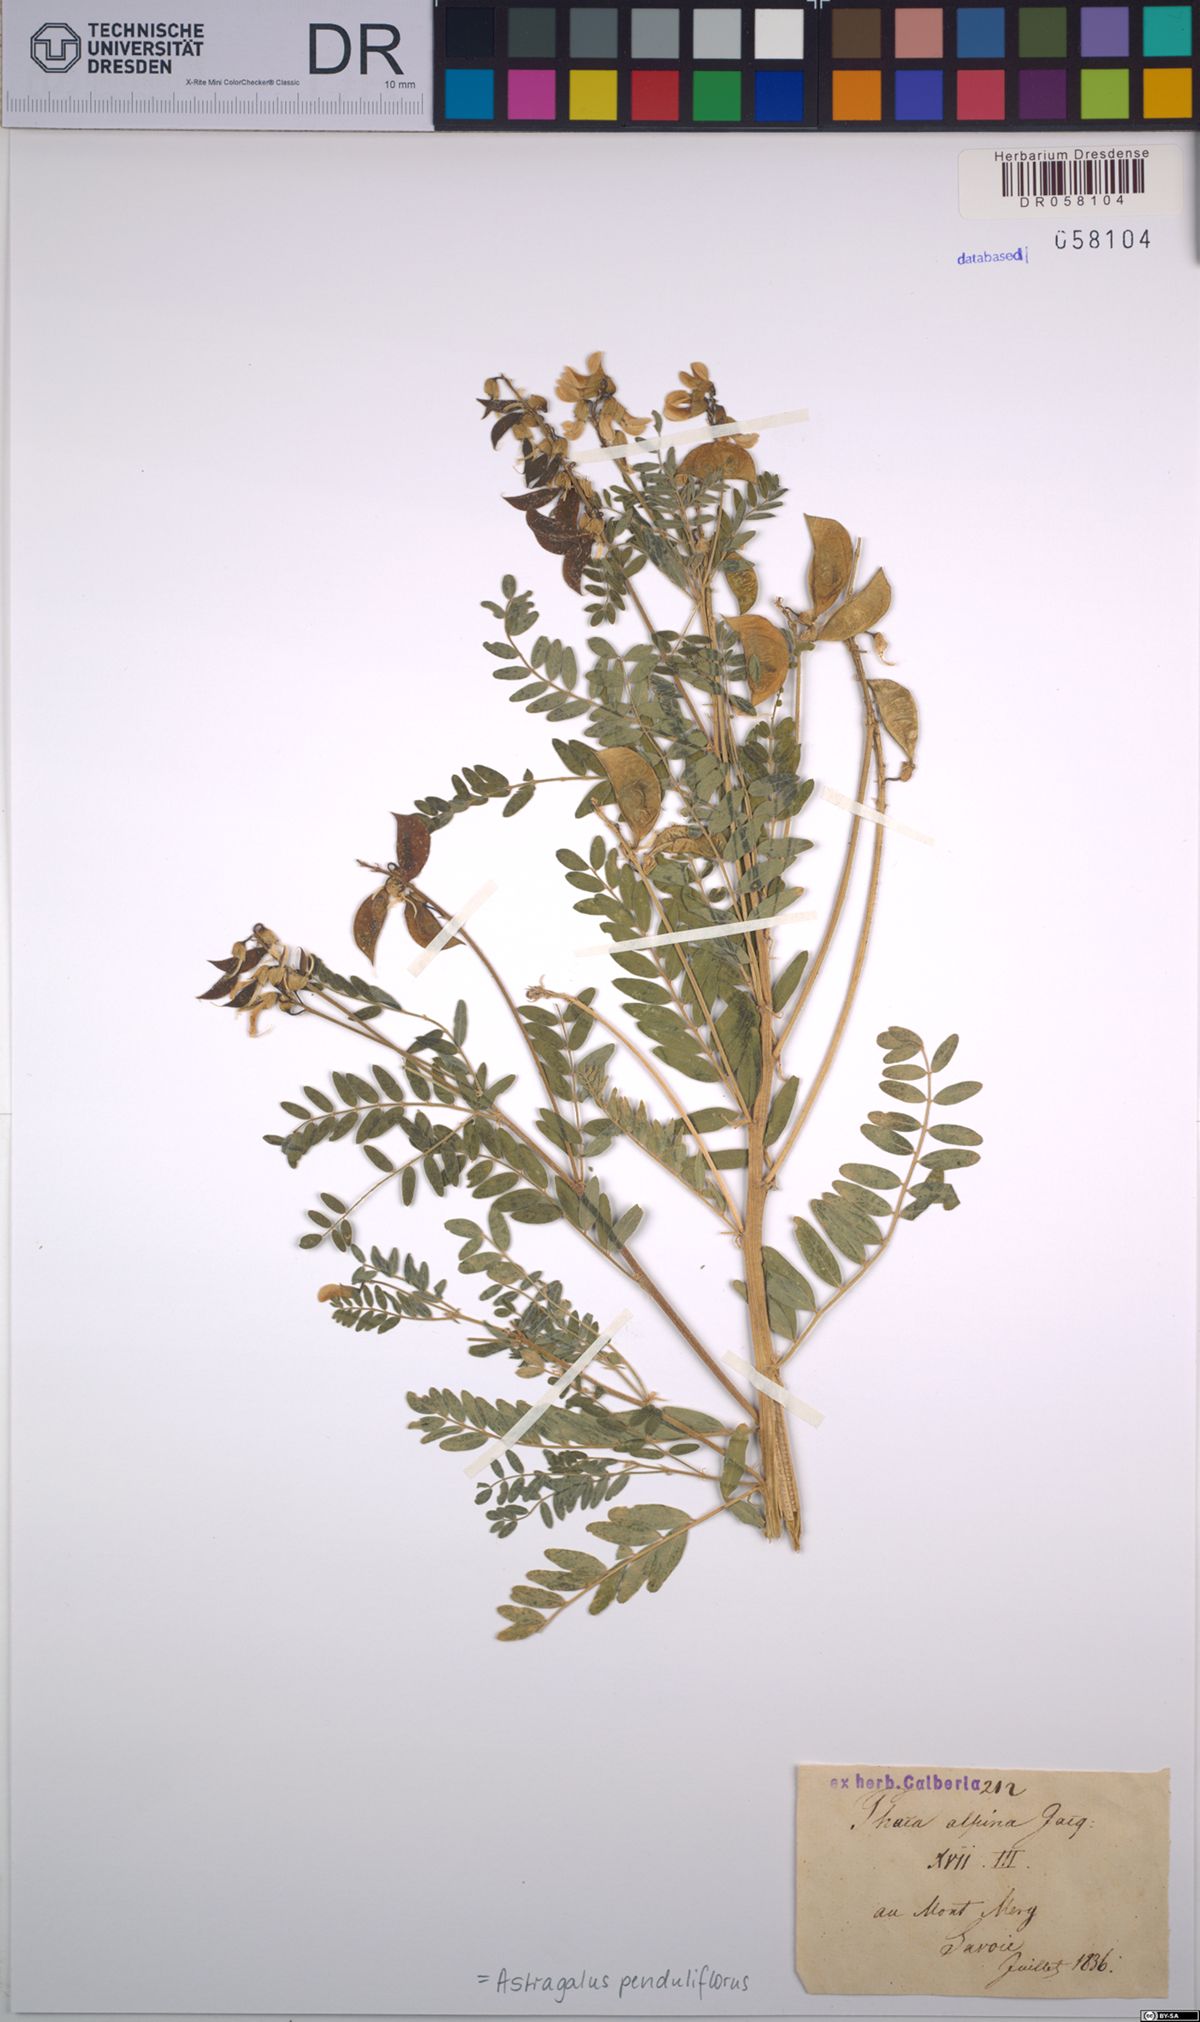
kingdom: Plantae
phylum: Tracheophyta
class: Magnoliopsida
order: Fabales
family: Fabaceae
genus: Astragalus
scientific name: Astragalus penduliflorus
